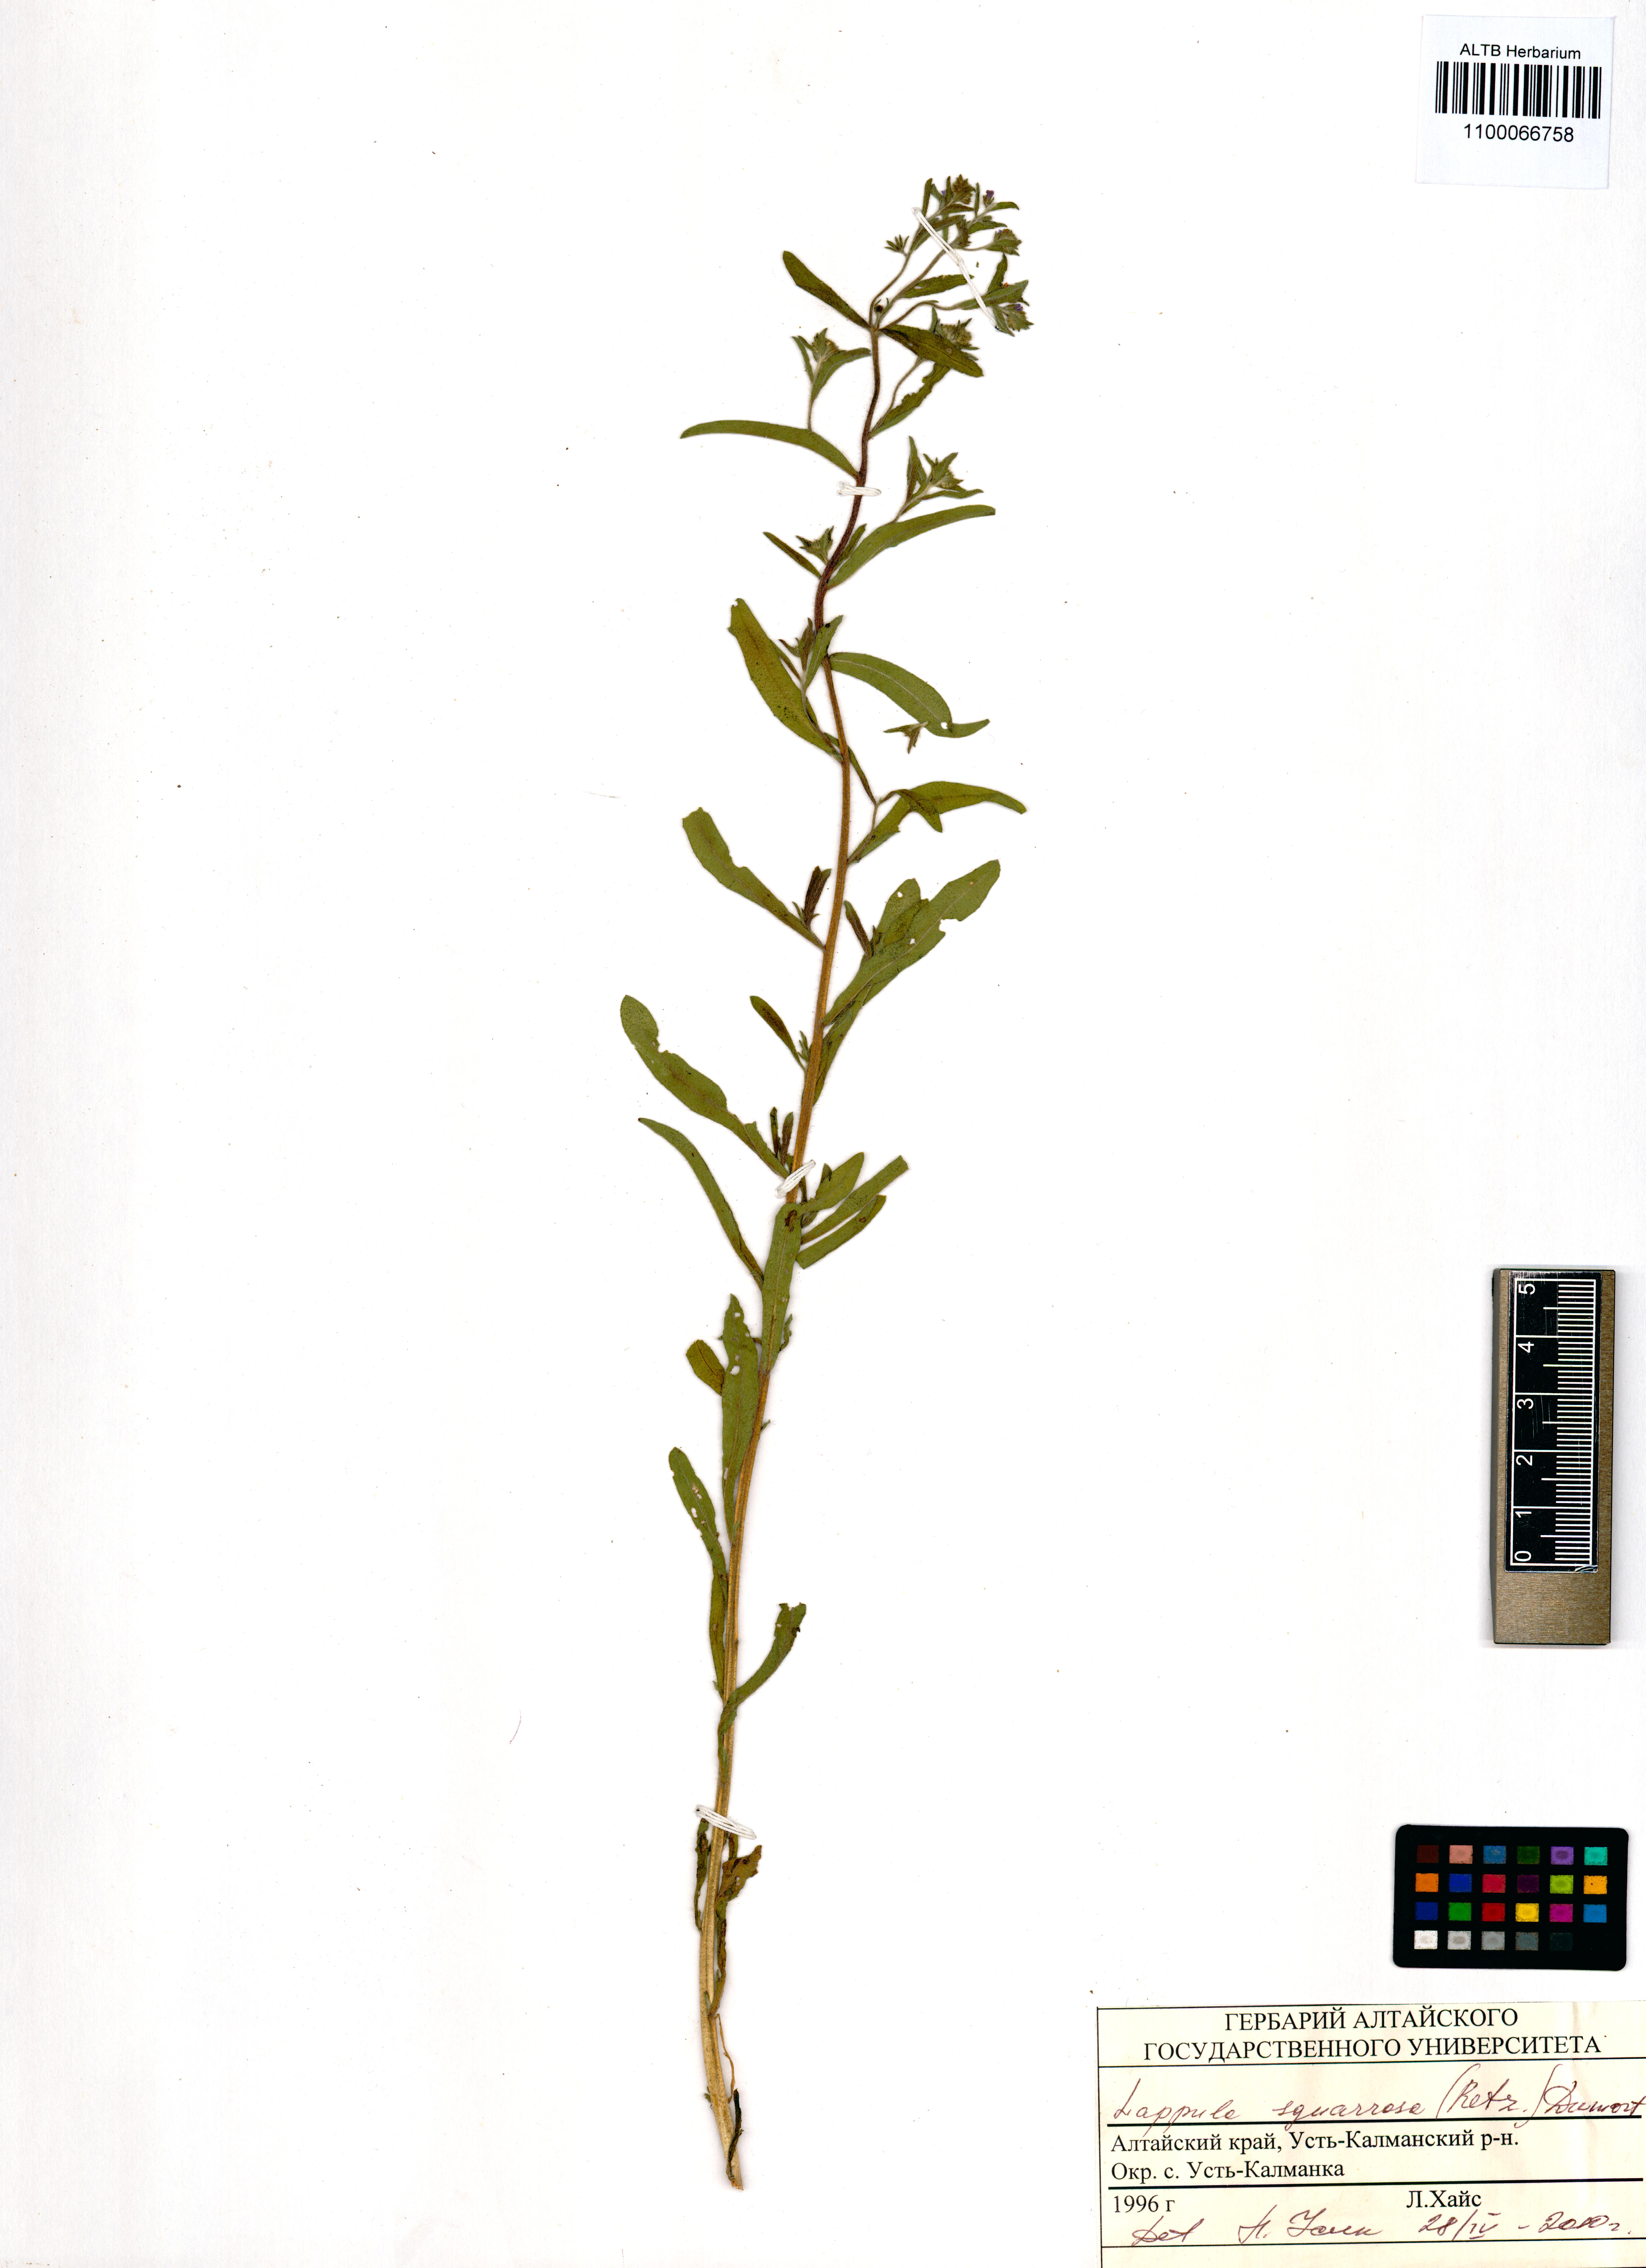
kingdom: Plantae
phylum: Tracheophyta
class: Magnoliopsida
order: Boraginales
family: Boraginaceae
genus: Lappula
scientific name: Lappula squarrosa
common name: European stickseed
